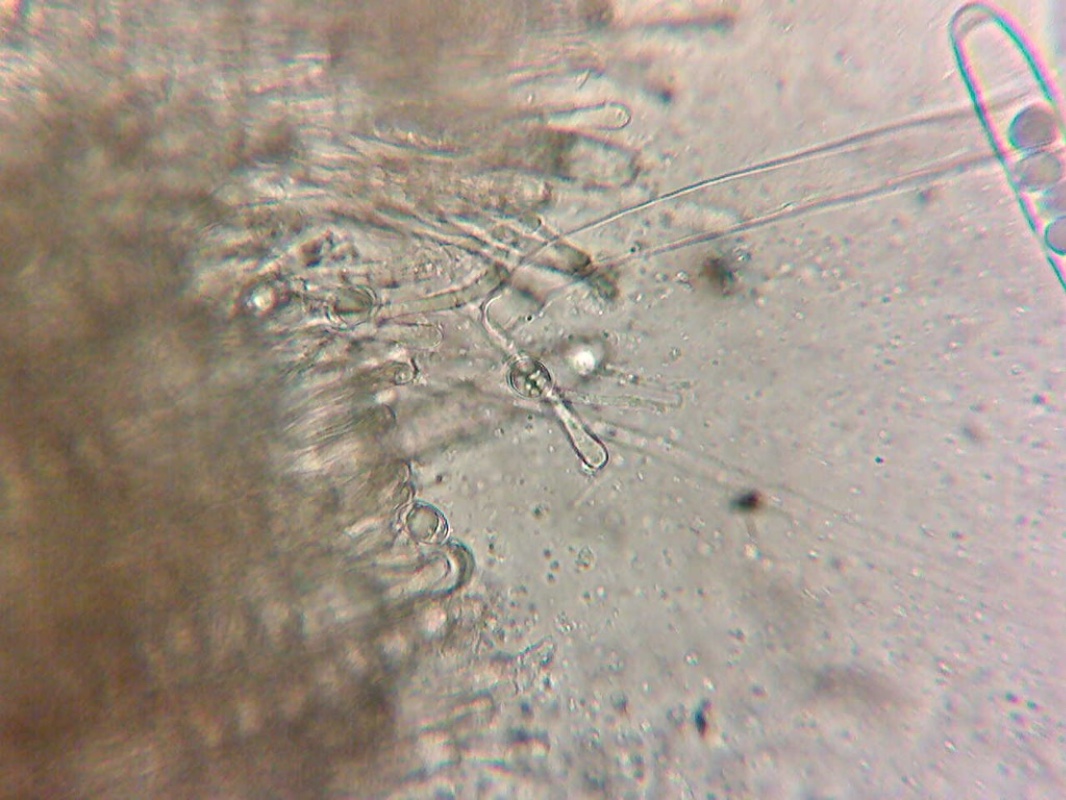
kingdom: Fungi
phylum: Ascomycota
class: Pezizomycetes
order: Pezizales
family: Helvellaceae
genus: Helvella
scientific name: Helvella fibrosa
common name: dunstokket foldhat
